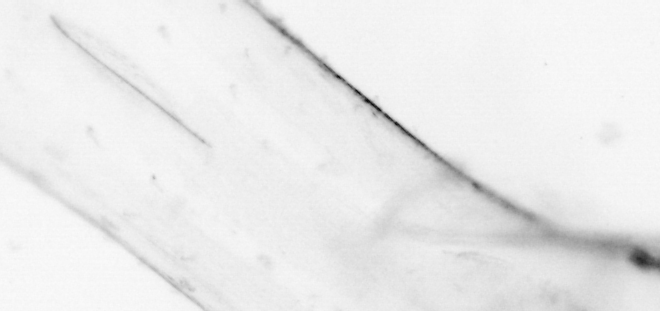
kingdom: Animalia
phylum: Chaetognatha
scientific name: Chaetognatha
